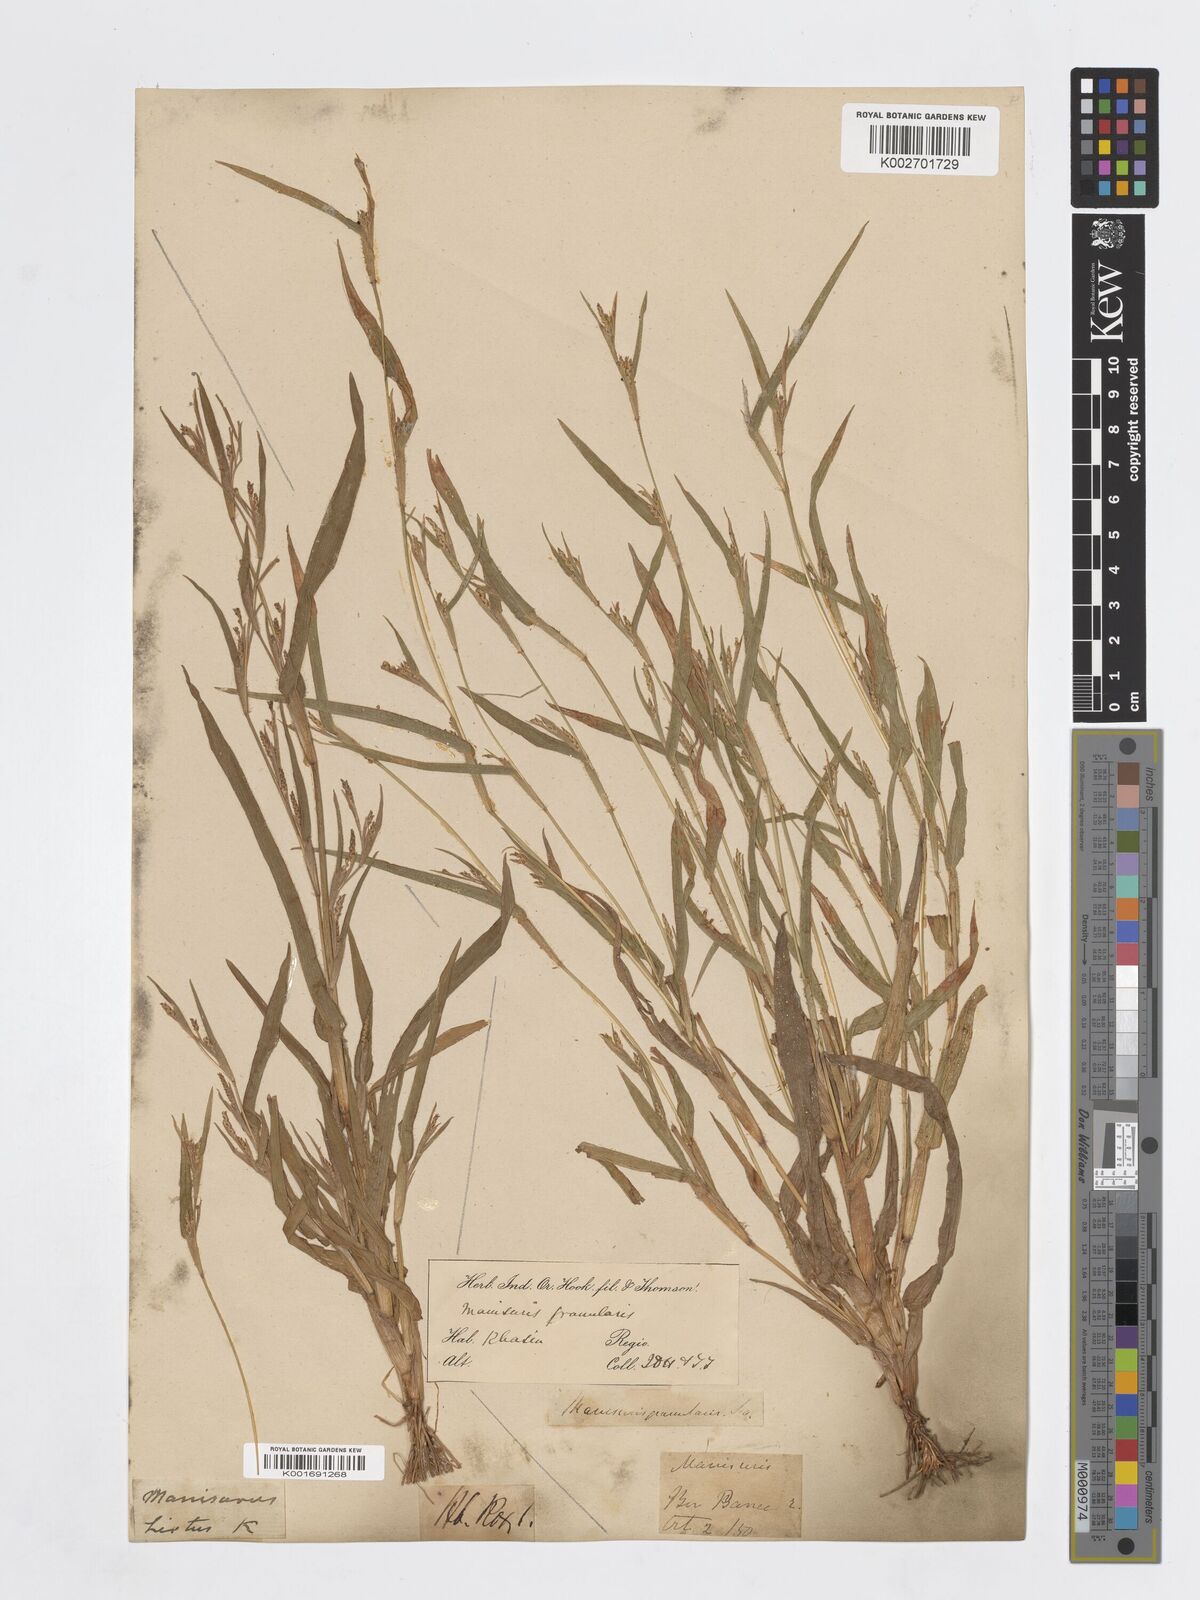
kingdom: Plantae
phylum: Tracheophyta
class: Liliopsida
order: Poales
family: Poaceae
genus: Hackelochloa
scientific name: Hackelochloa granularis
